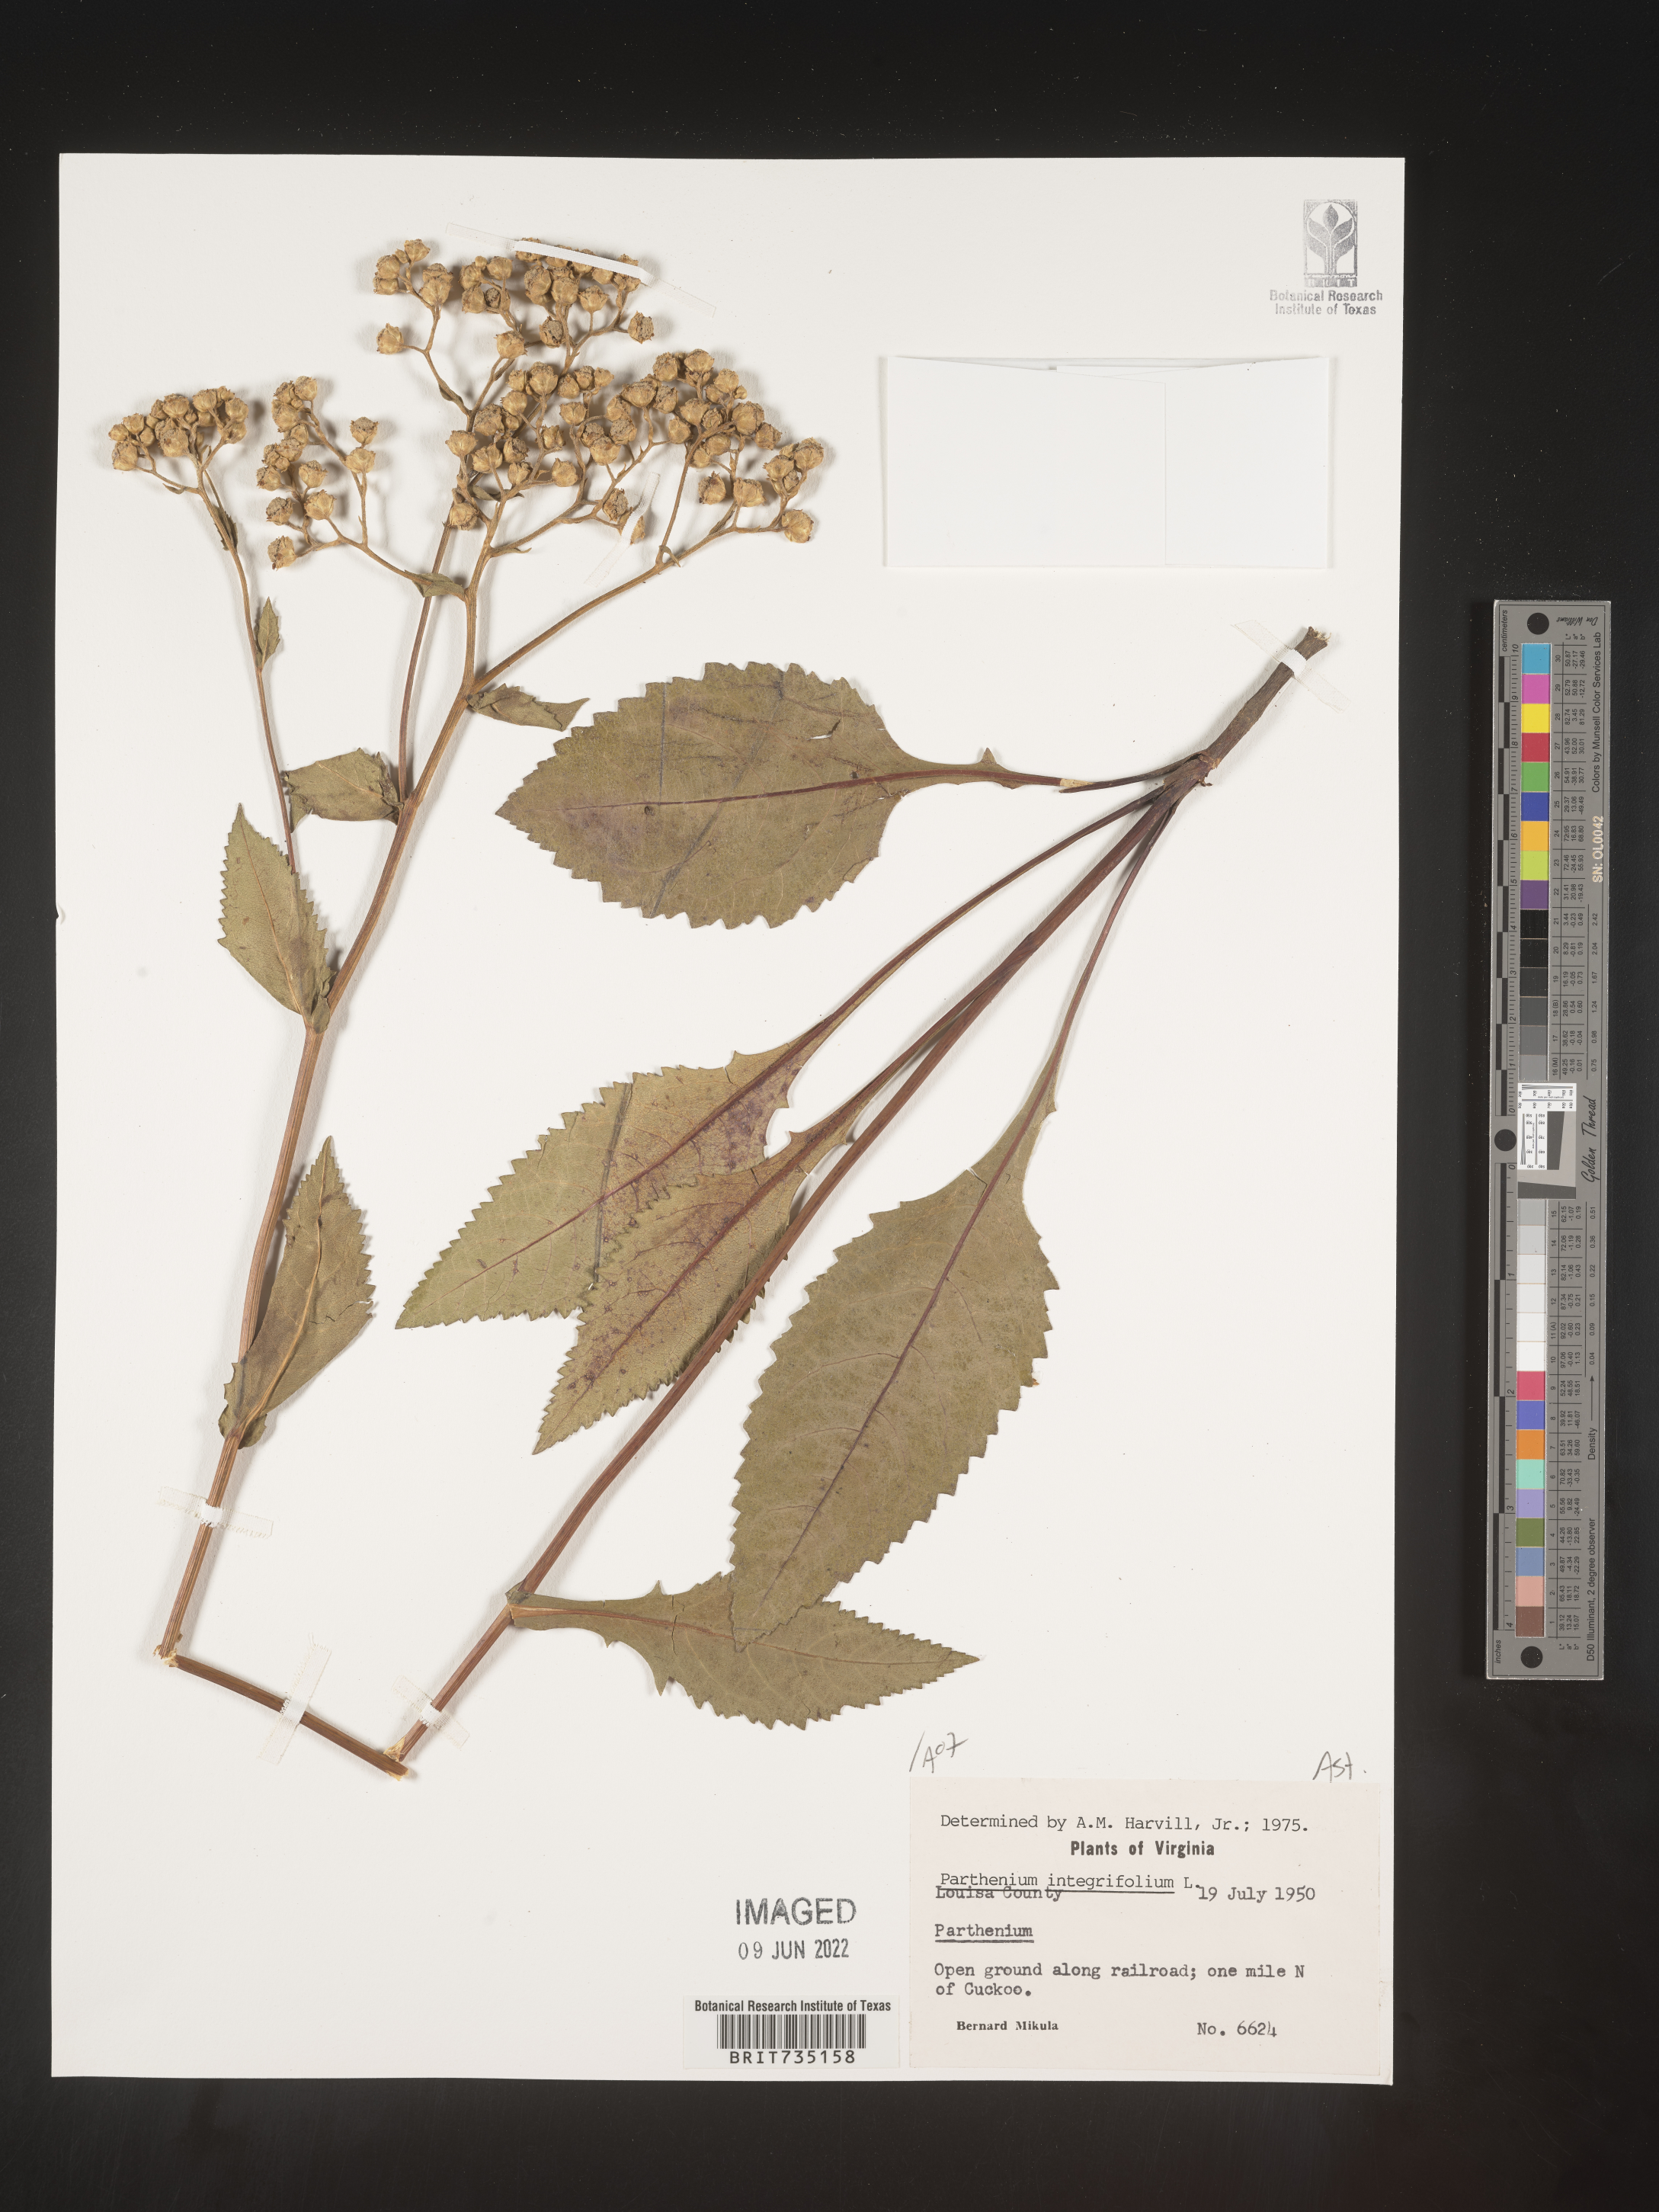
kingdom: Plantae
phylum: Tracheophyta
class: Magnoliopsida
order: Asterales
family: Asteraceae
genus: Parthenium
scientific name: Parthenium integrifolium
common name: American feverfew
